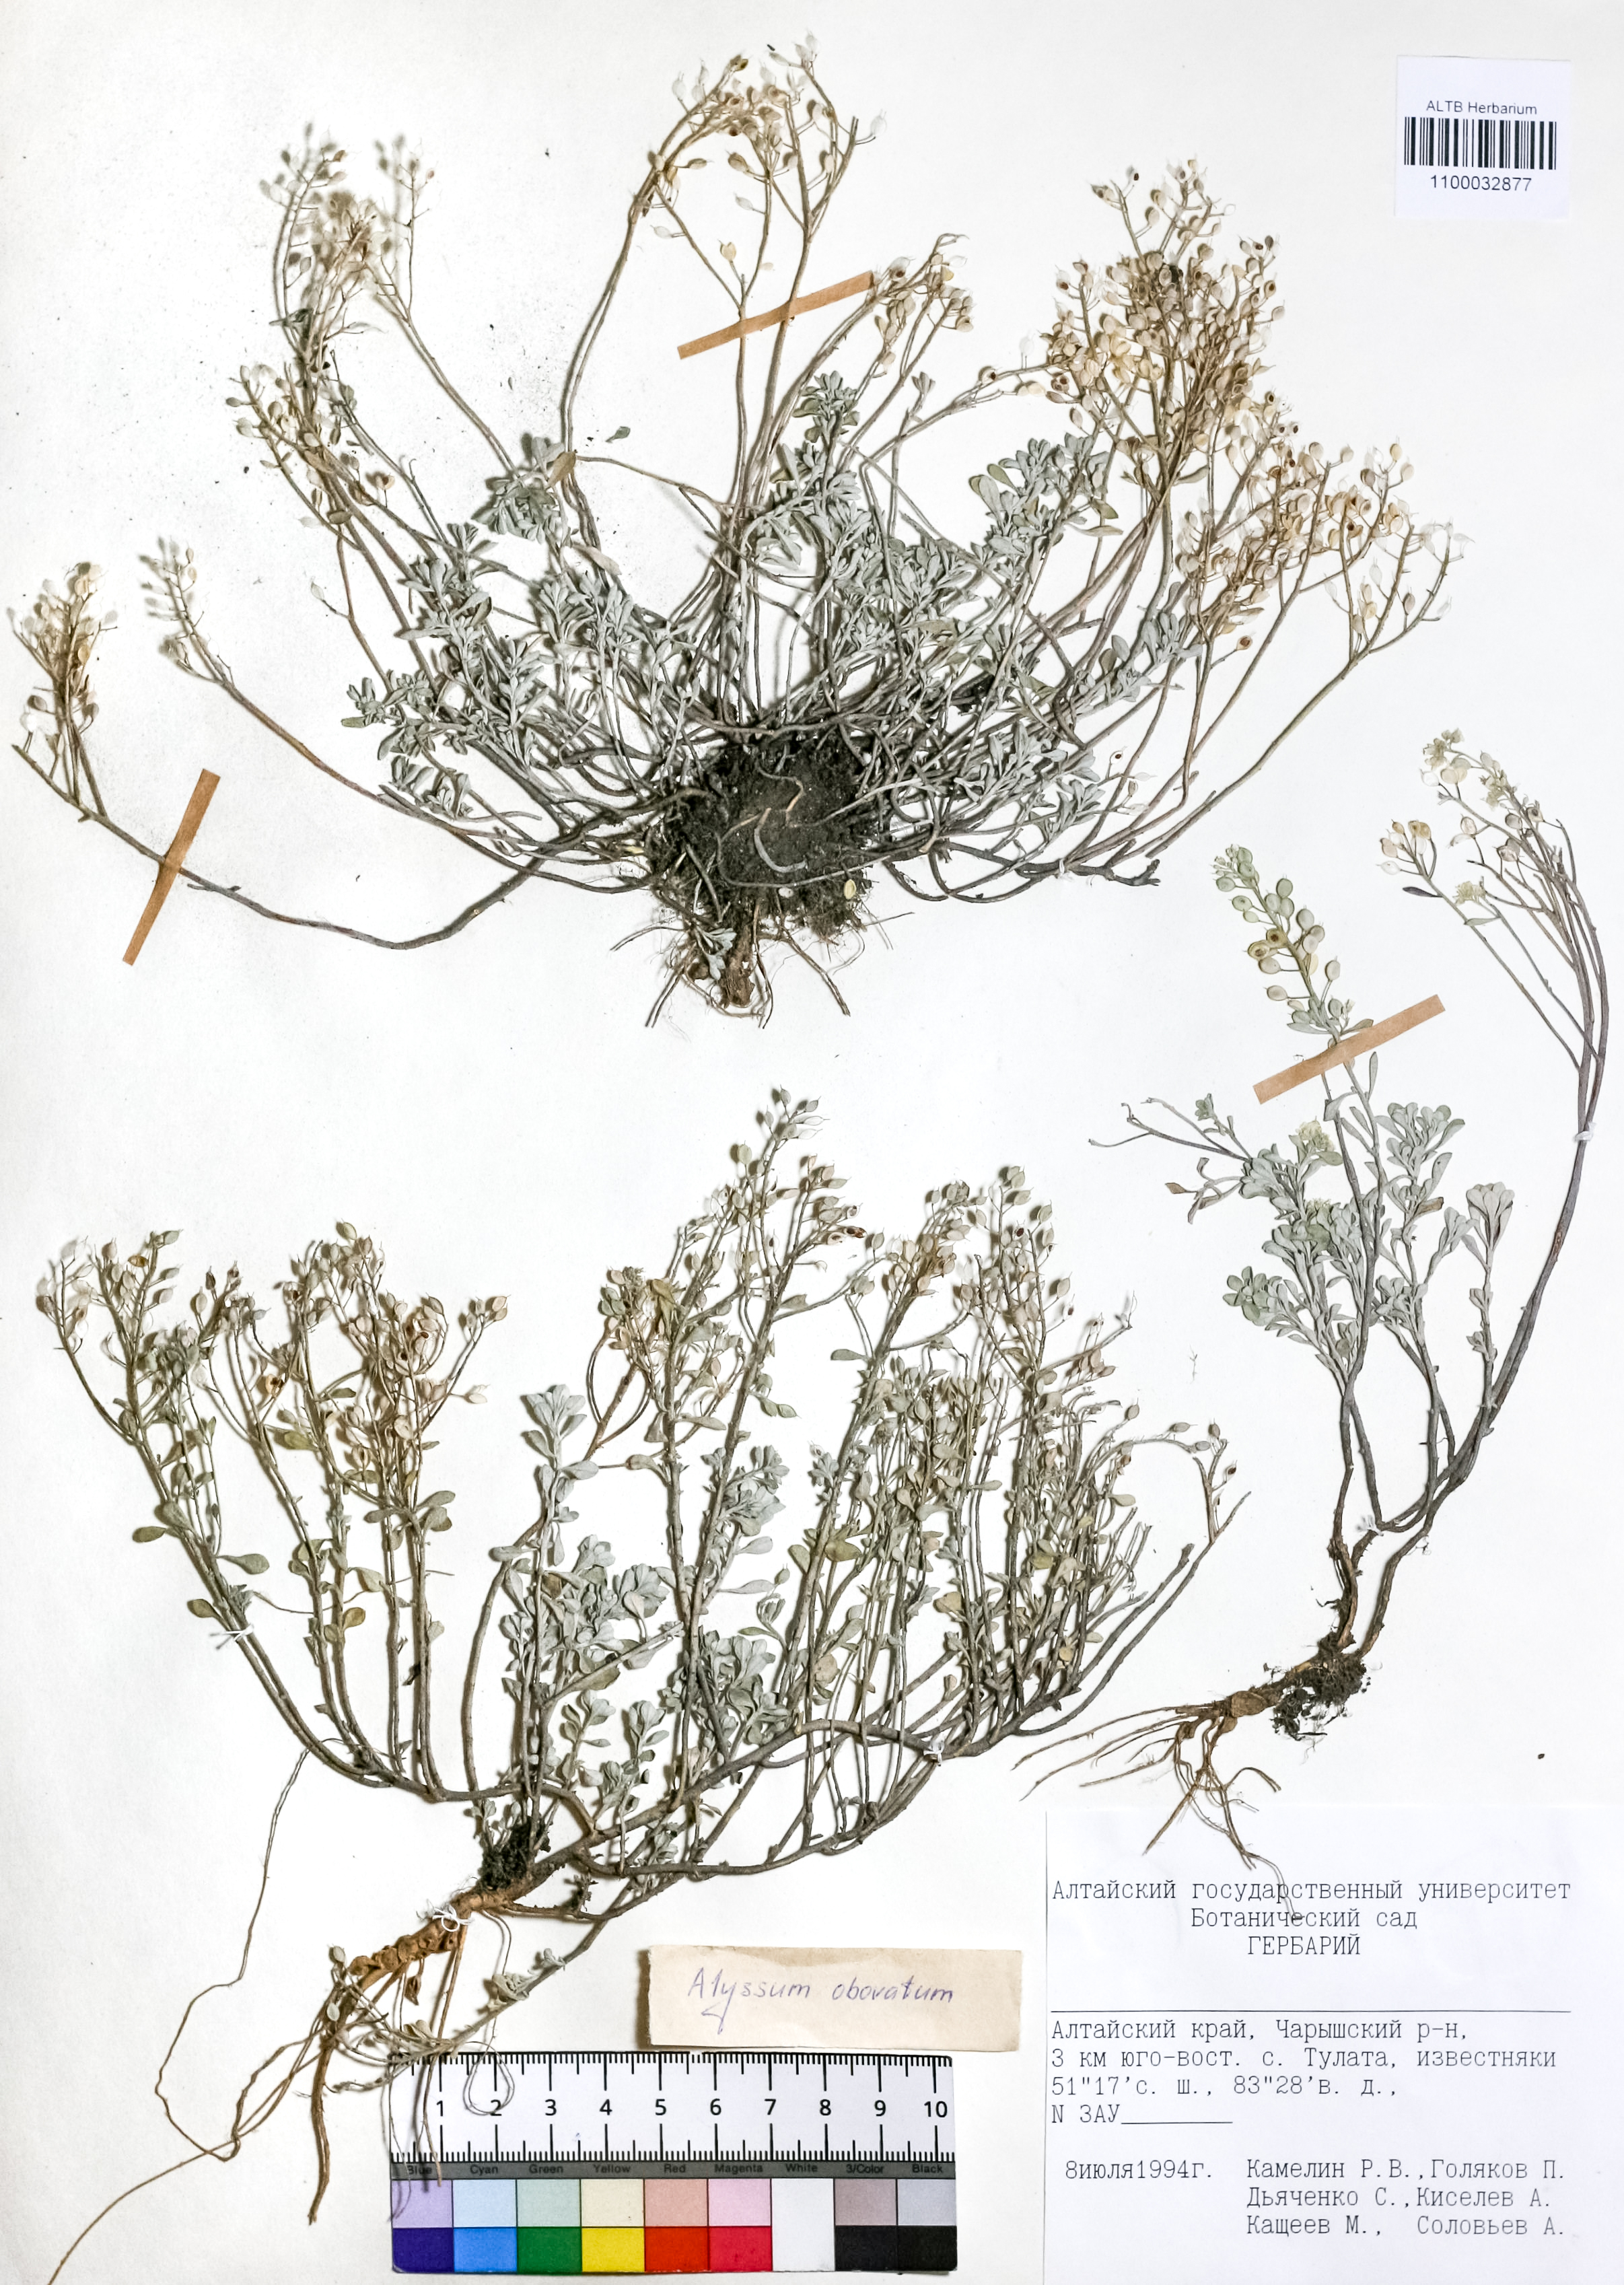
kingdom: Plantae
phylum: Tracheophyta
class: Magnoliopsida
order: Brassicales
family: Brassicaceae
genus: Odontarrhena
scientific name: Odontarrhena obovata
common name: American alyssum
